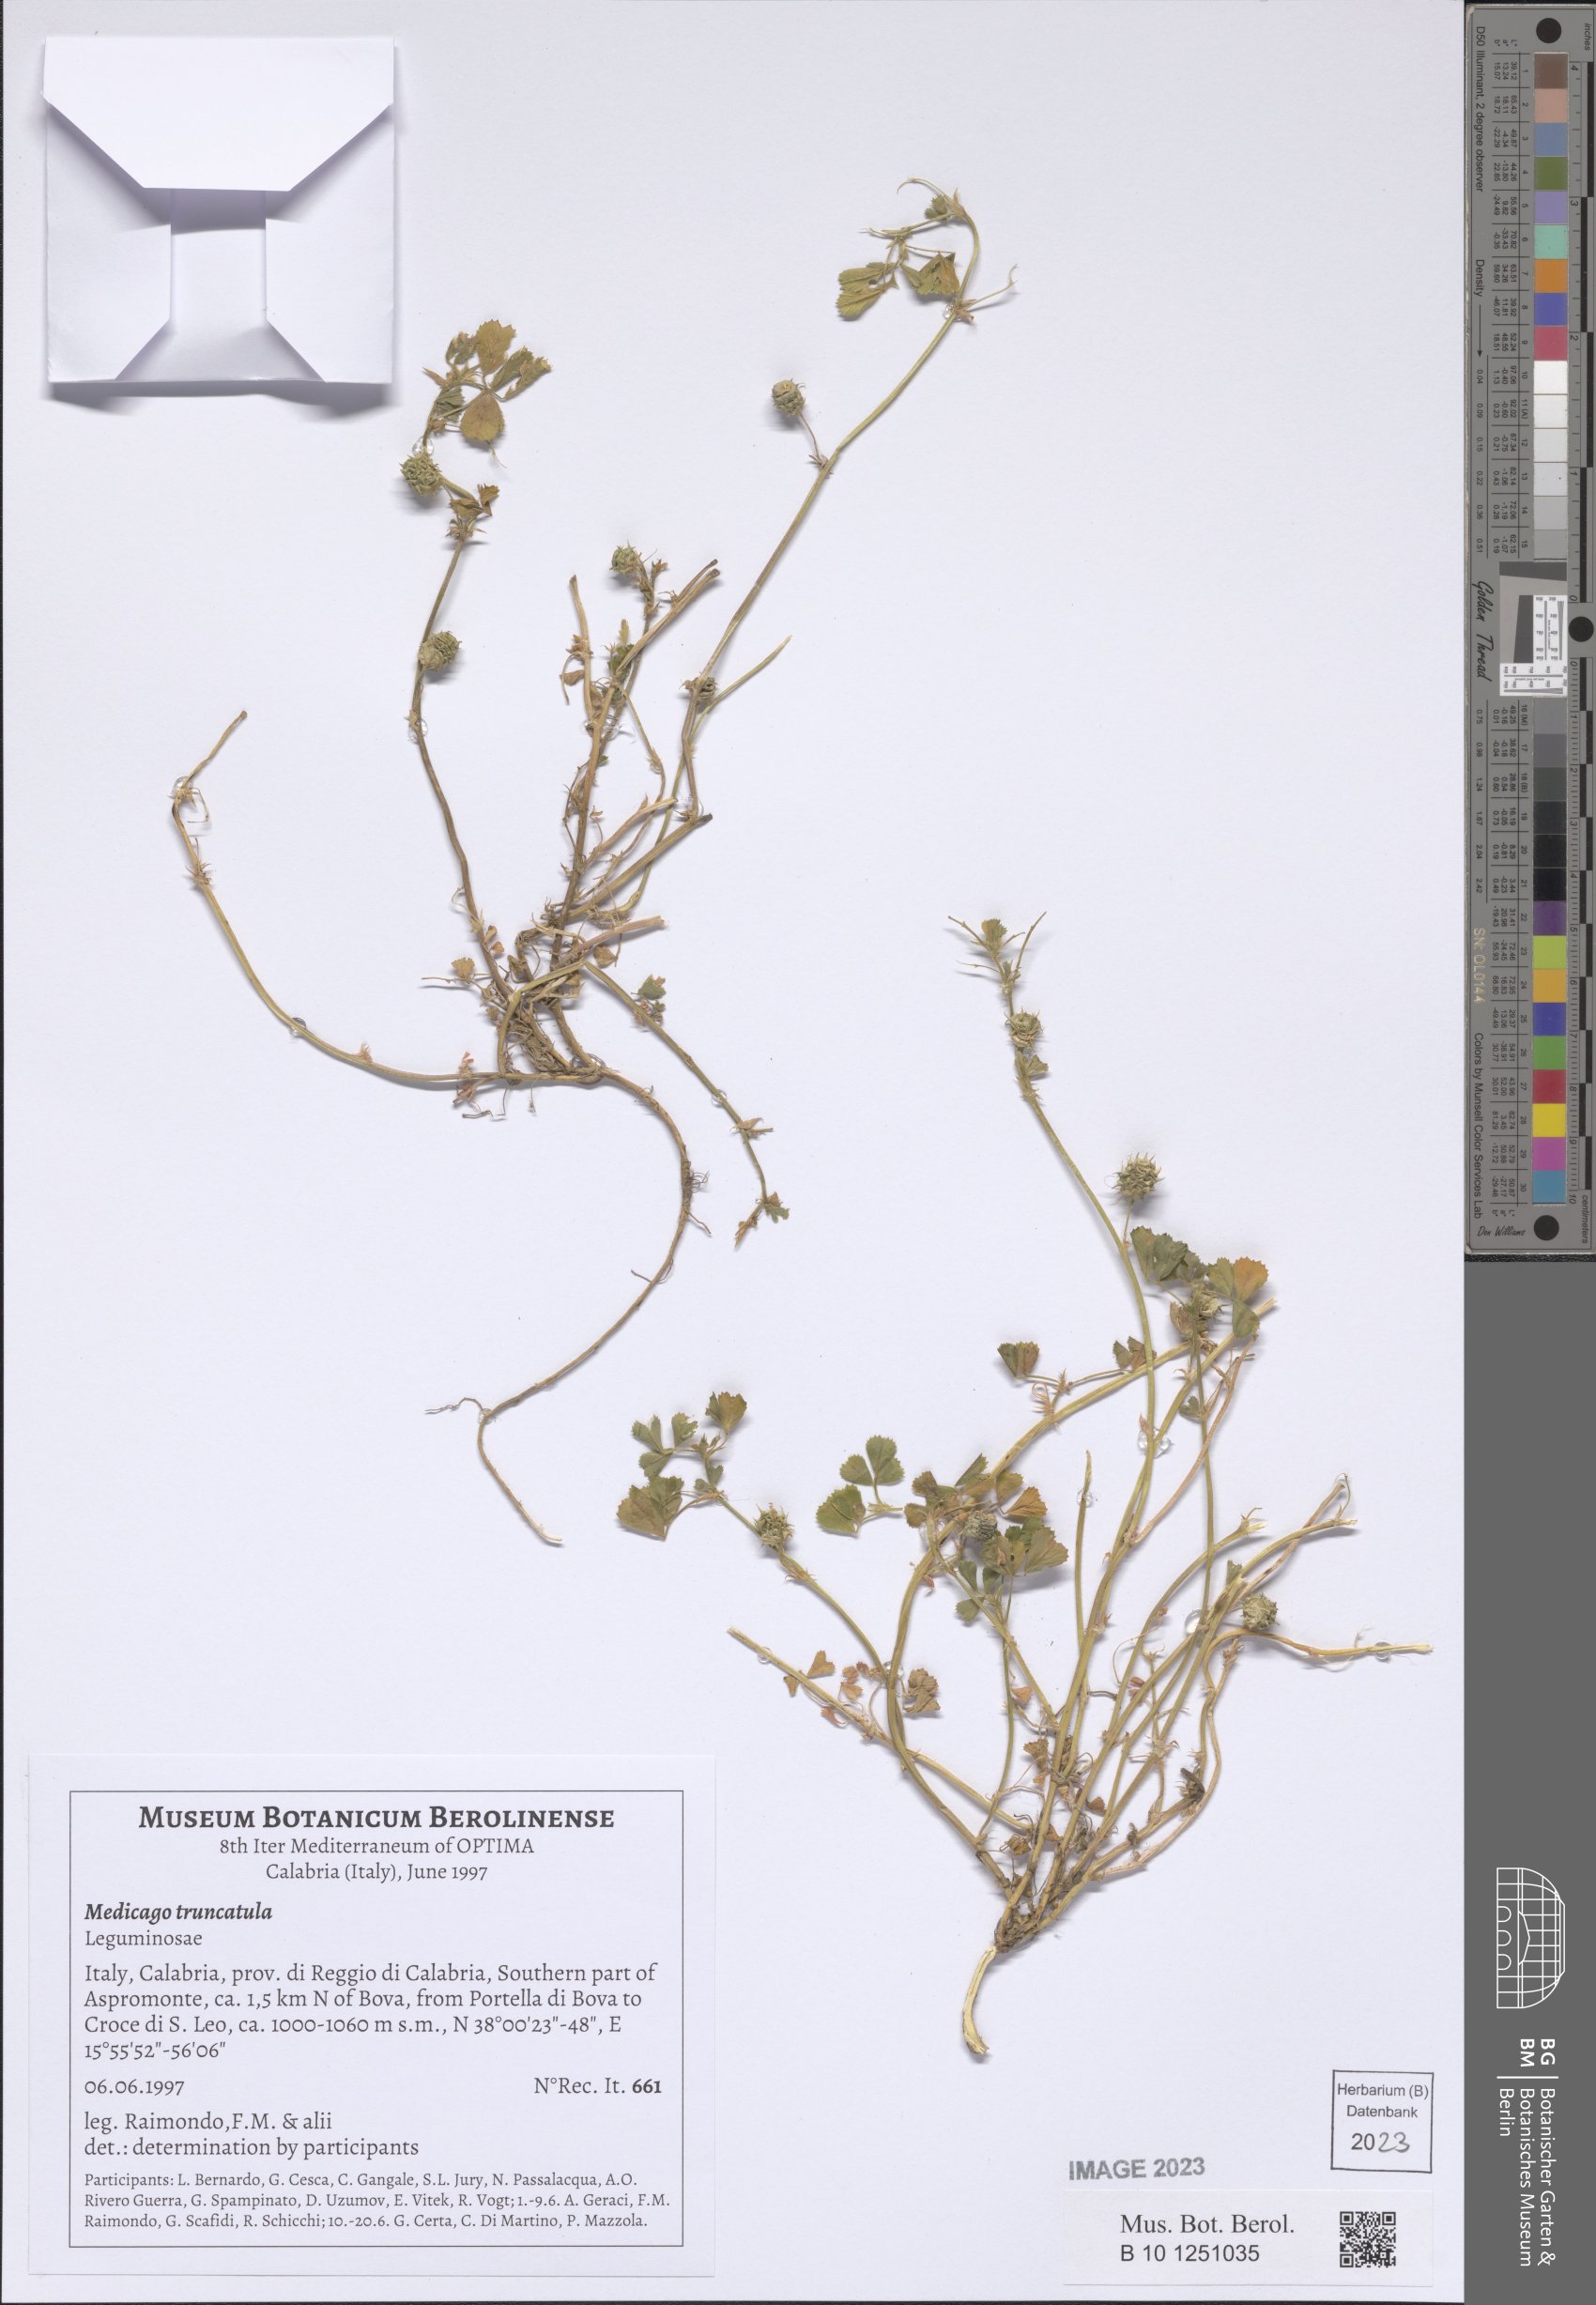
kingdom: Plantae
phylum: Tracheophyta
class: Magnoliopsida
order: Fabales
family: Fabaceae
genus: Medicago
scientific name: Medicago truncatula
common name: Strong-spined medick
